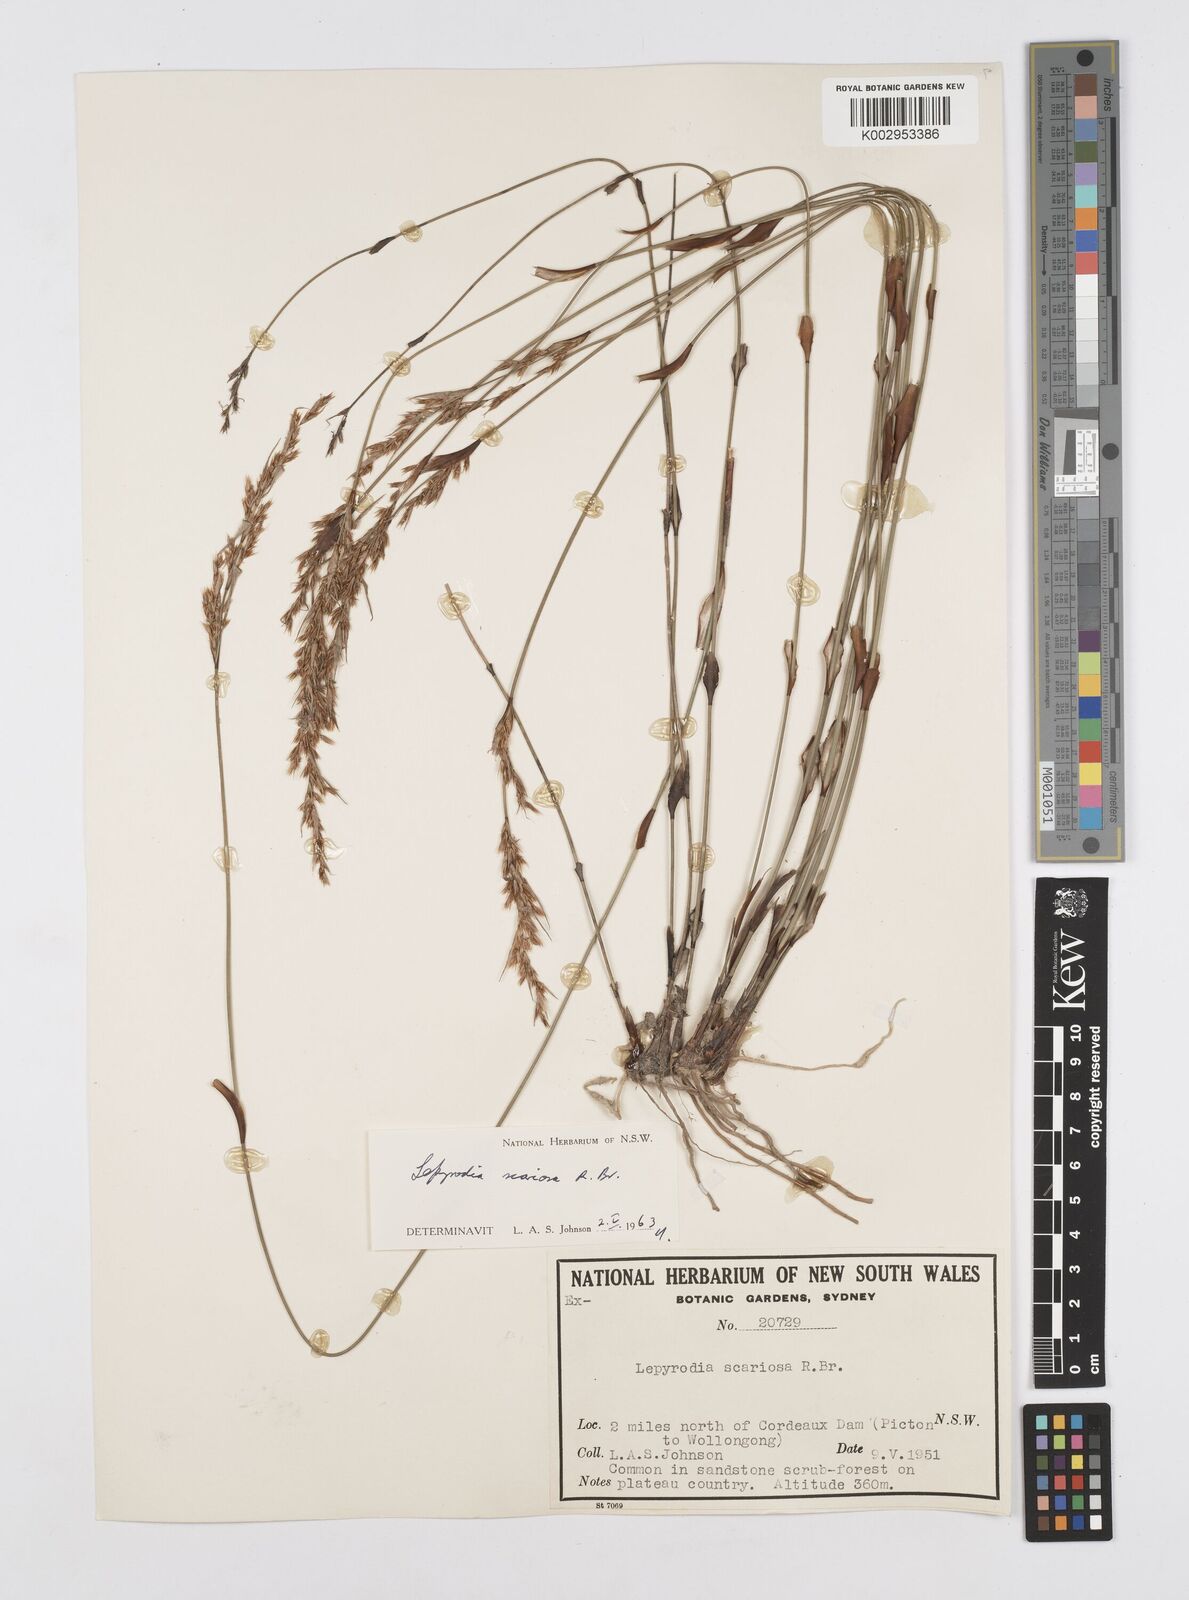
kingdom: Plantae
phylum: Tracheophyta
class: Liliopsida
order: Poales
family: Restionaceae
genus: Lepyrodia
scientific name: Lepyrodia scariosa
